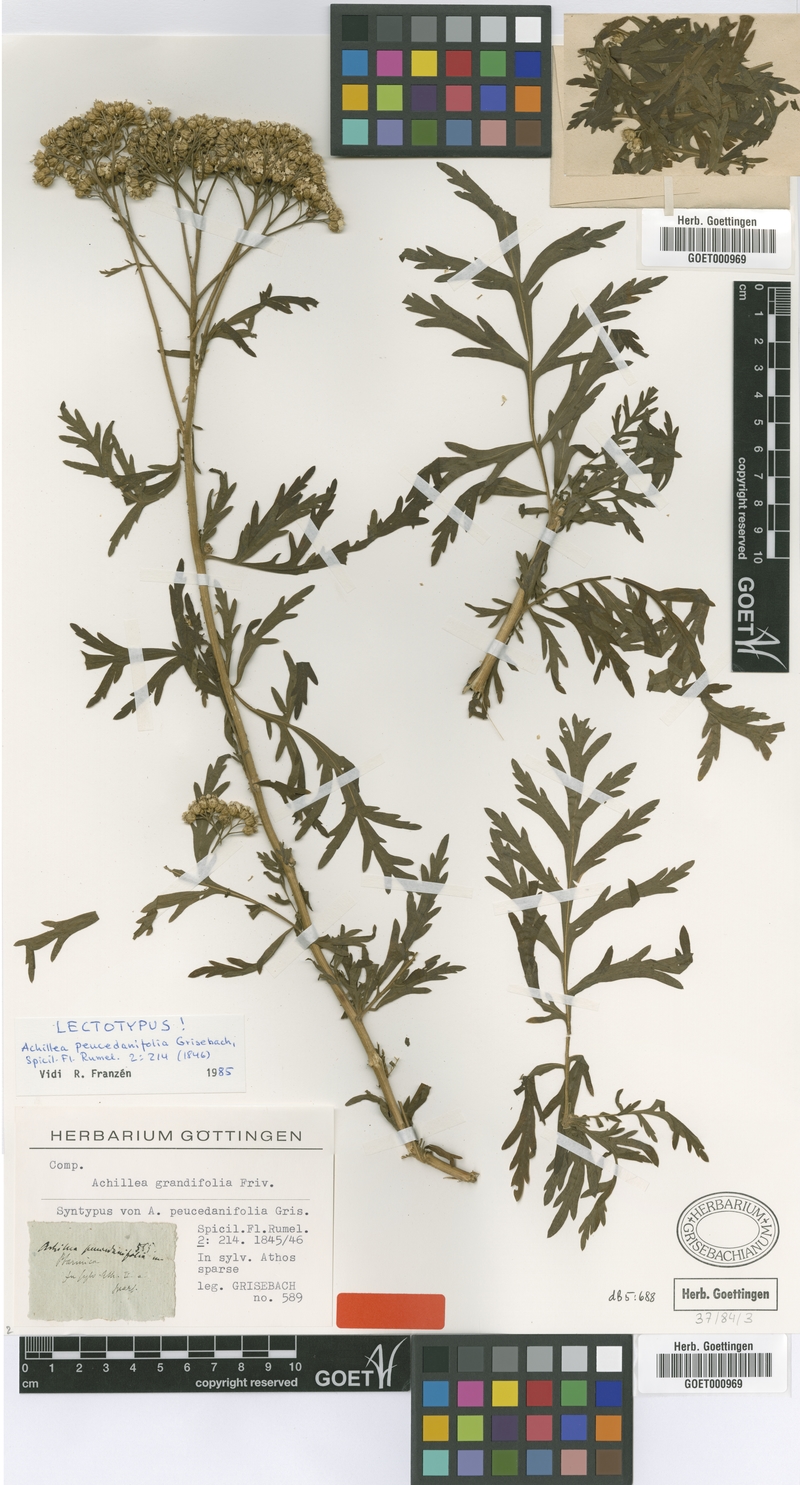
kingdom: Plantae
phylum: Tracheophyta
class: Magnoliopsida
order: Asterales
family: Asteraceae
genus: Achillea
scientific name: Achillea grandifolia
